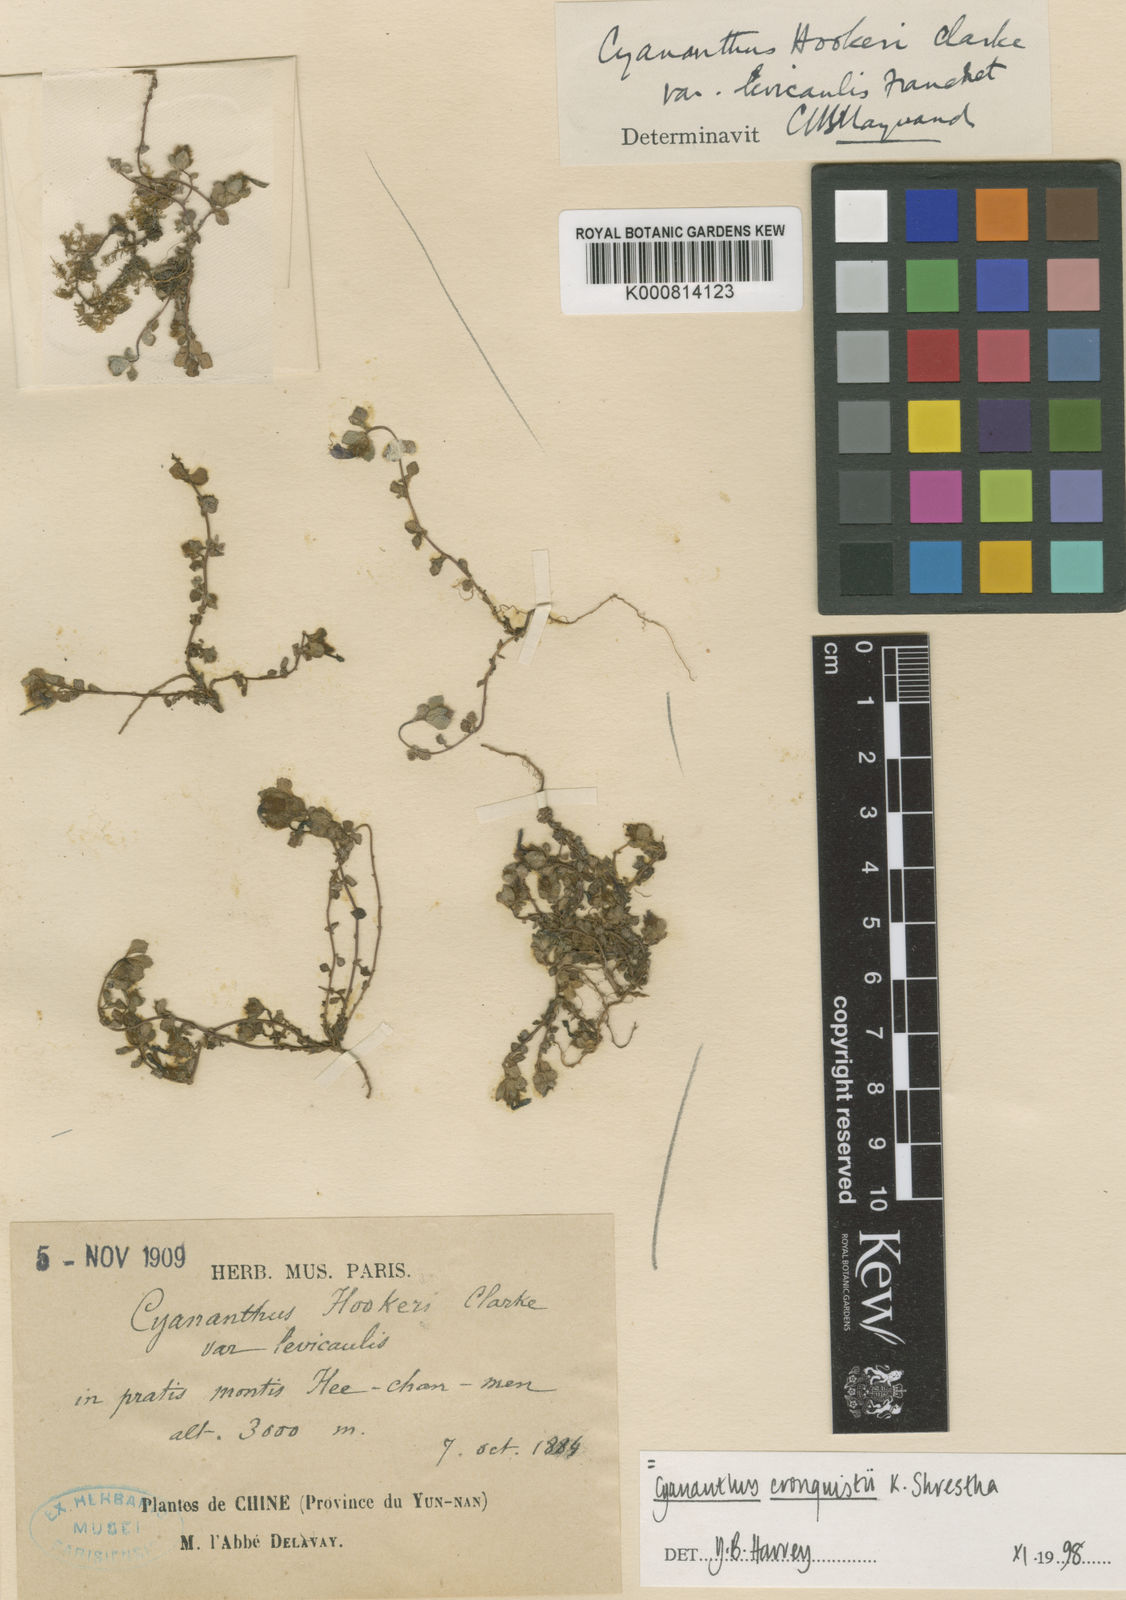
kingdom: Plantae
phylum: Tracheophyta
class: Magnoliopsida
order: Asterales
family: Campanulaceae
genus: Cyananthus
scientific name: Cyananthus hookeri
